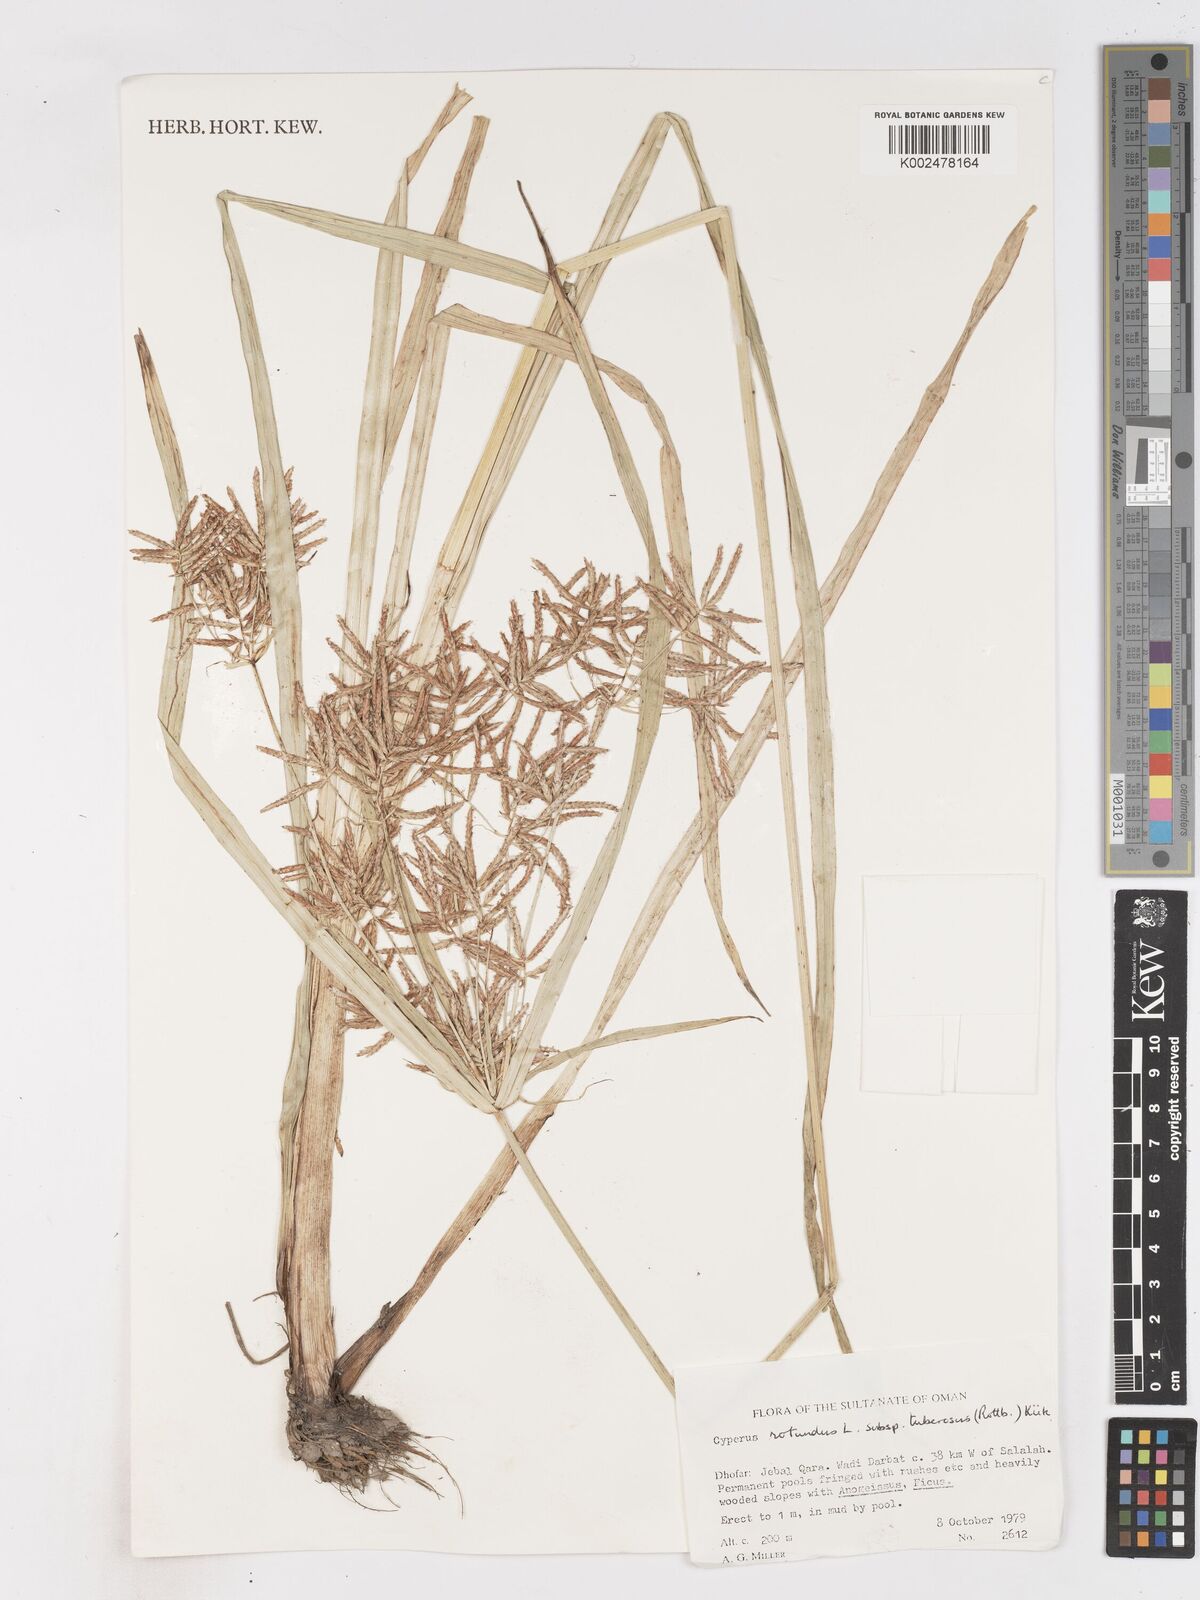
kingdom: Plantae
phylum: Tracheophyta
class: Liliopsida
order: Poales
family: Cyperaceae
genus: Cyperus
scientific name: Cyperus nubicus
